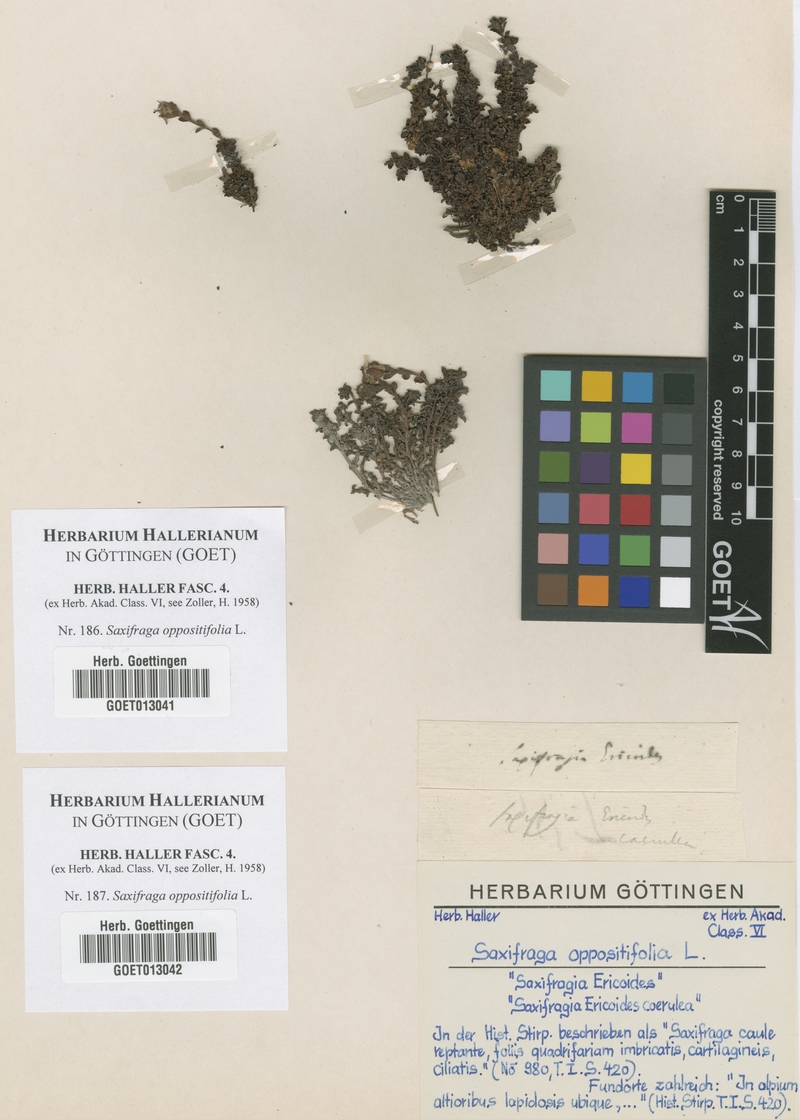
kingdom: Plantae
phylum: Tracheophyta
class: Magnoliopsida
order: Saxifragales
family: Saxifragaceae
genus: Saxifraga
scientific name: Saxifraga oppositifolia
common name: Purple saxifrage
